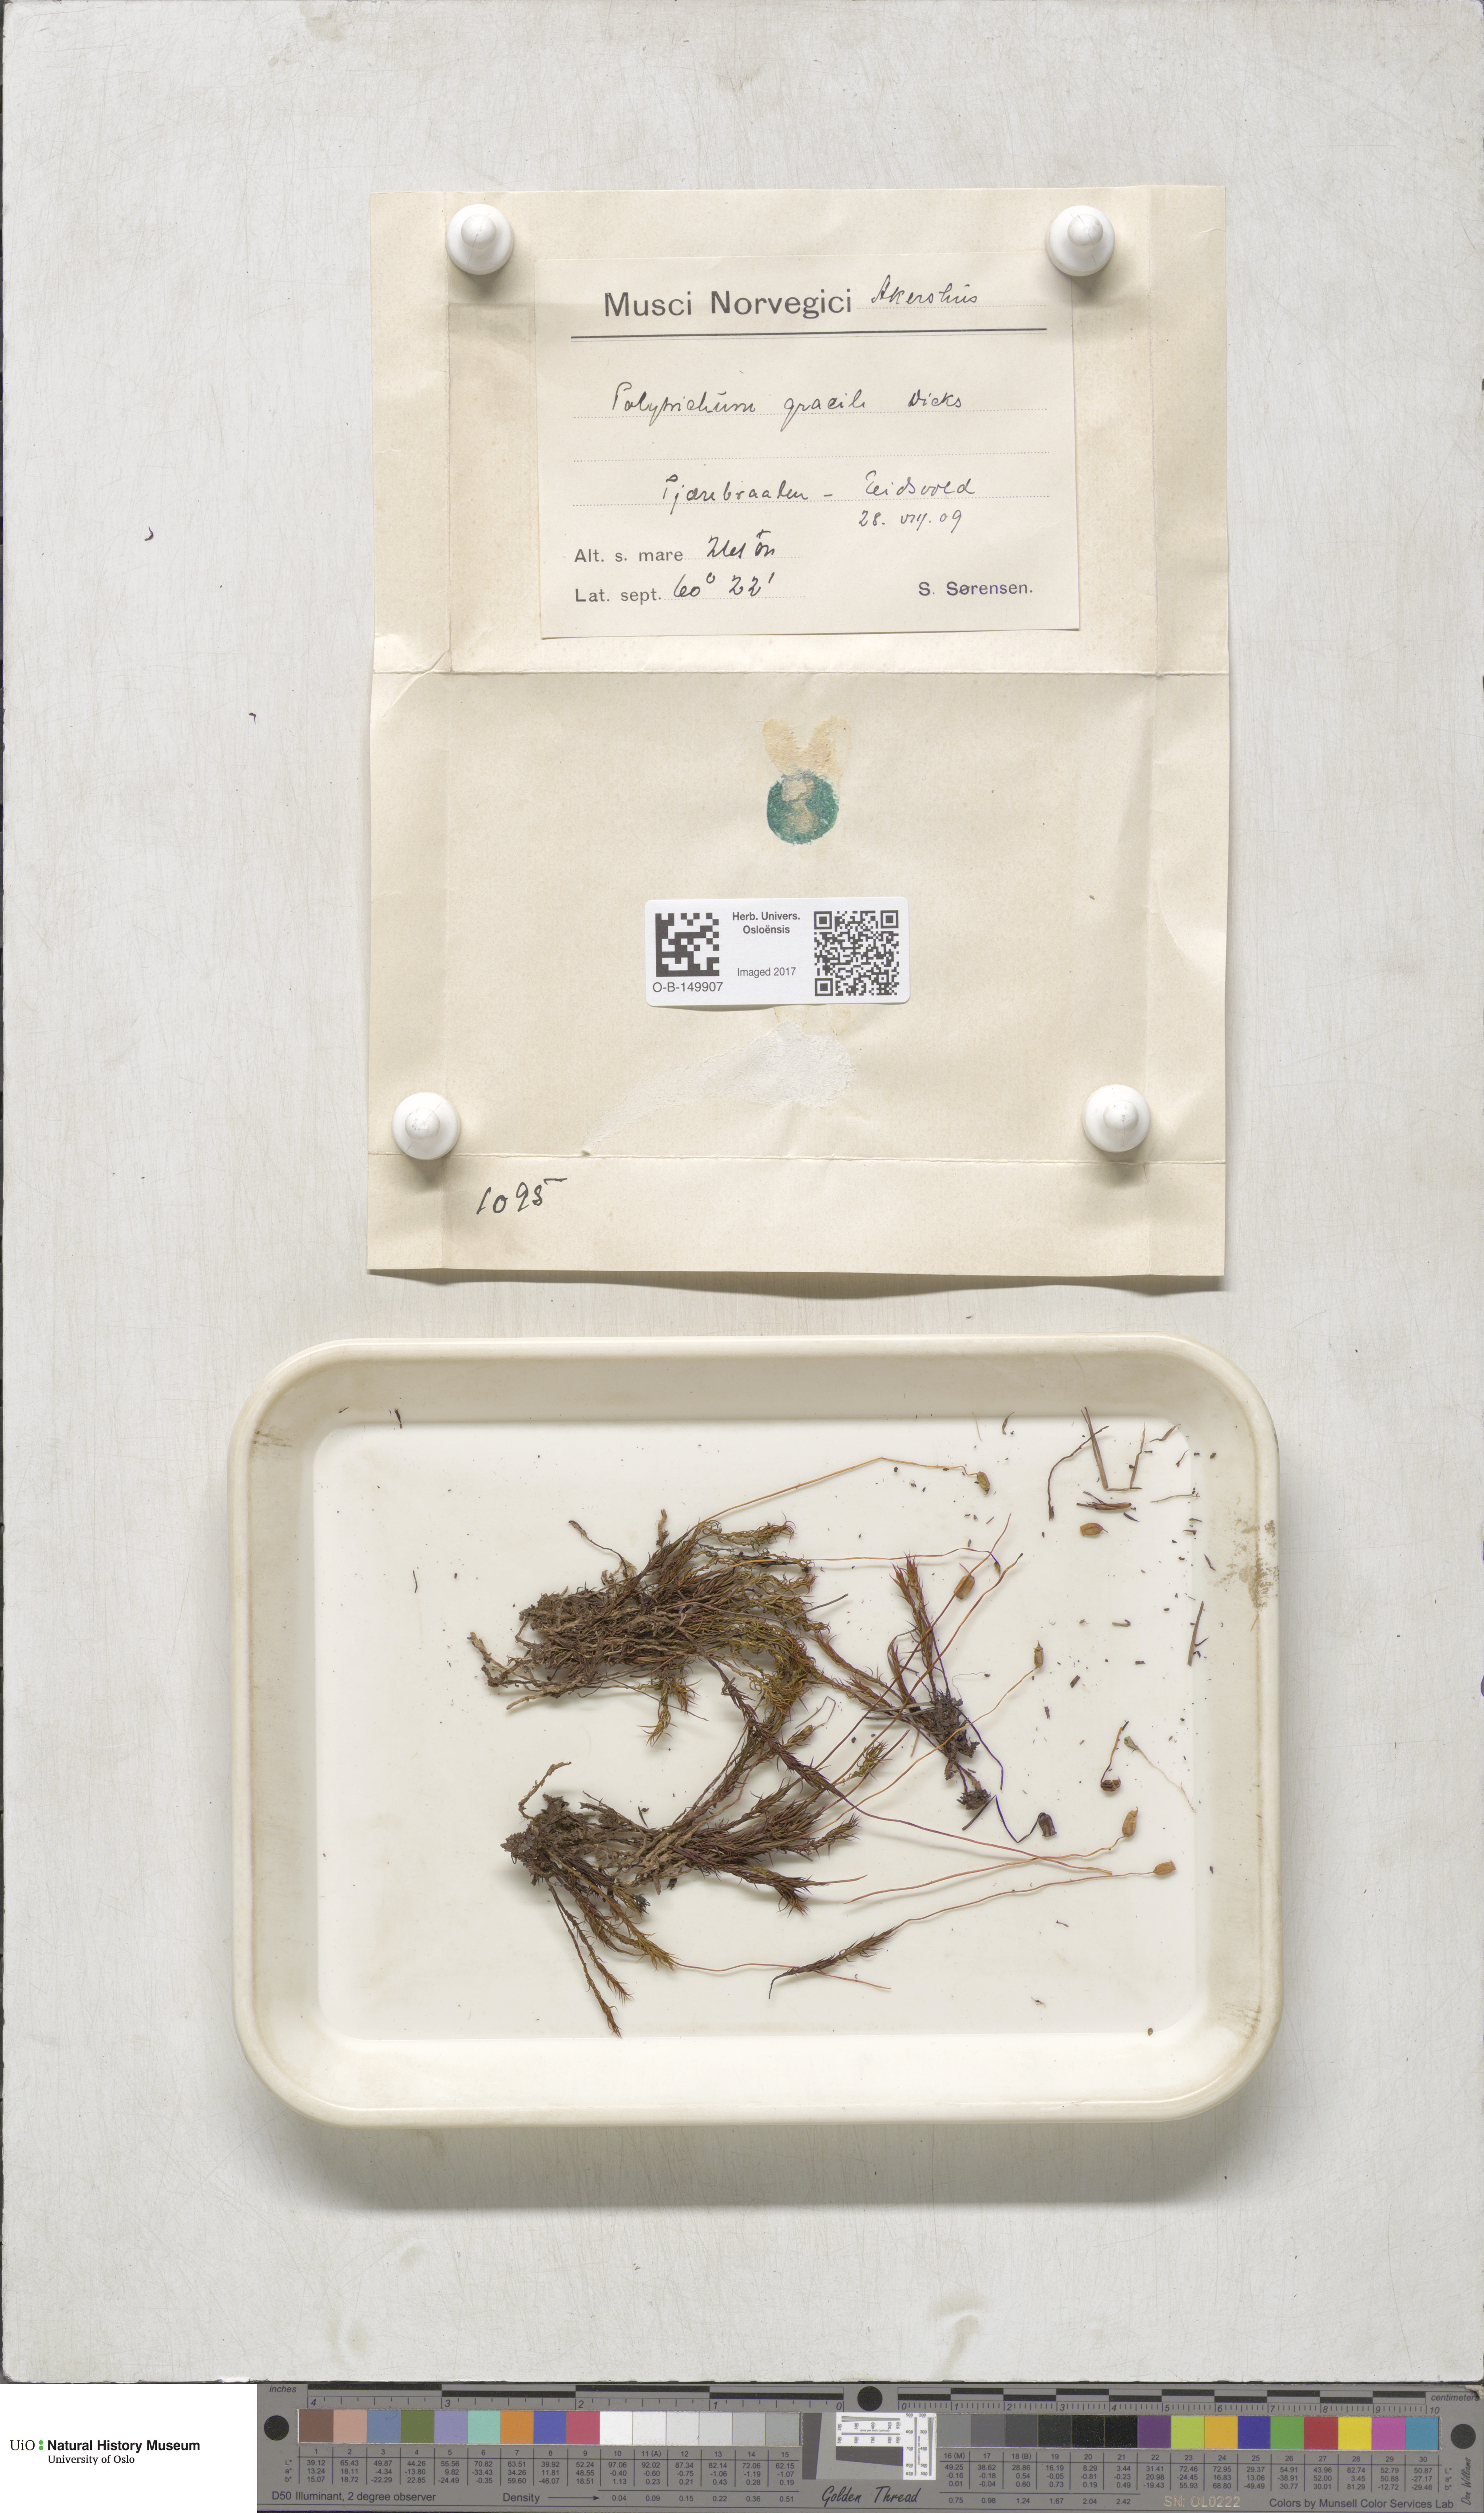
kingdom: Plantae
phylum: Bryophyta
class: Polytrichopsida
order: Polytrichales
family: Polytrichaceae
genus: Polytrichum
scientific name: Polytrichum longisetum
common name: Long-stalked haircap moss
